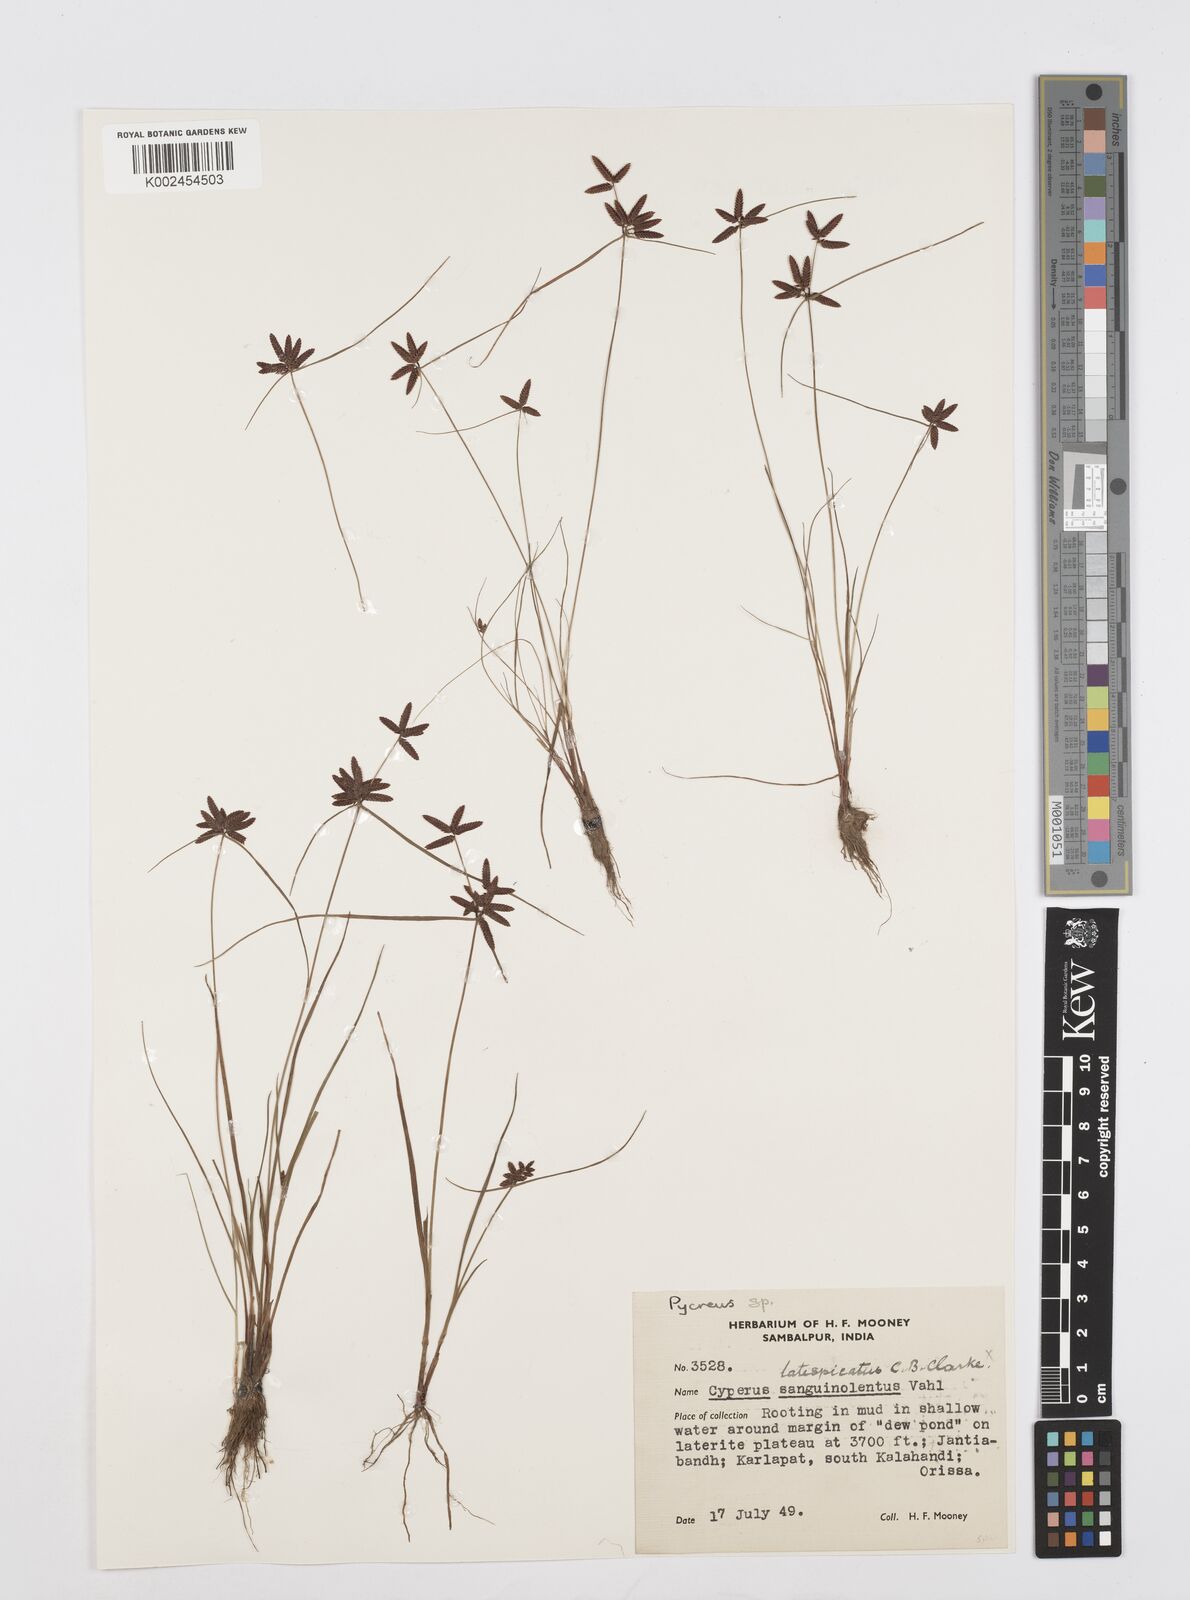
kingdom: Plantae
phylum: Tracheophyta
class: Liliopsida
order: Poales
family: Cyperaceae
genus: Cyperus
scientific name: Cyperus
